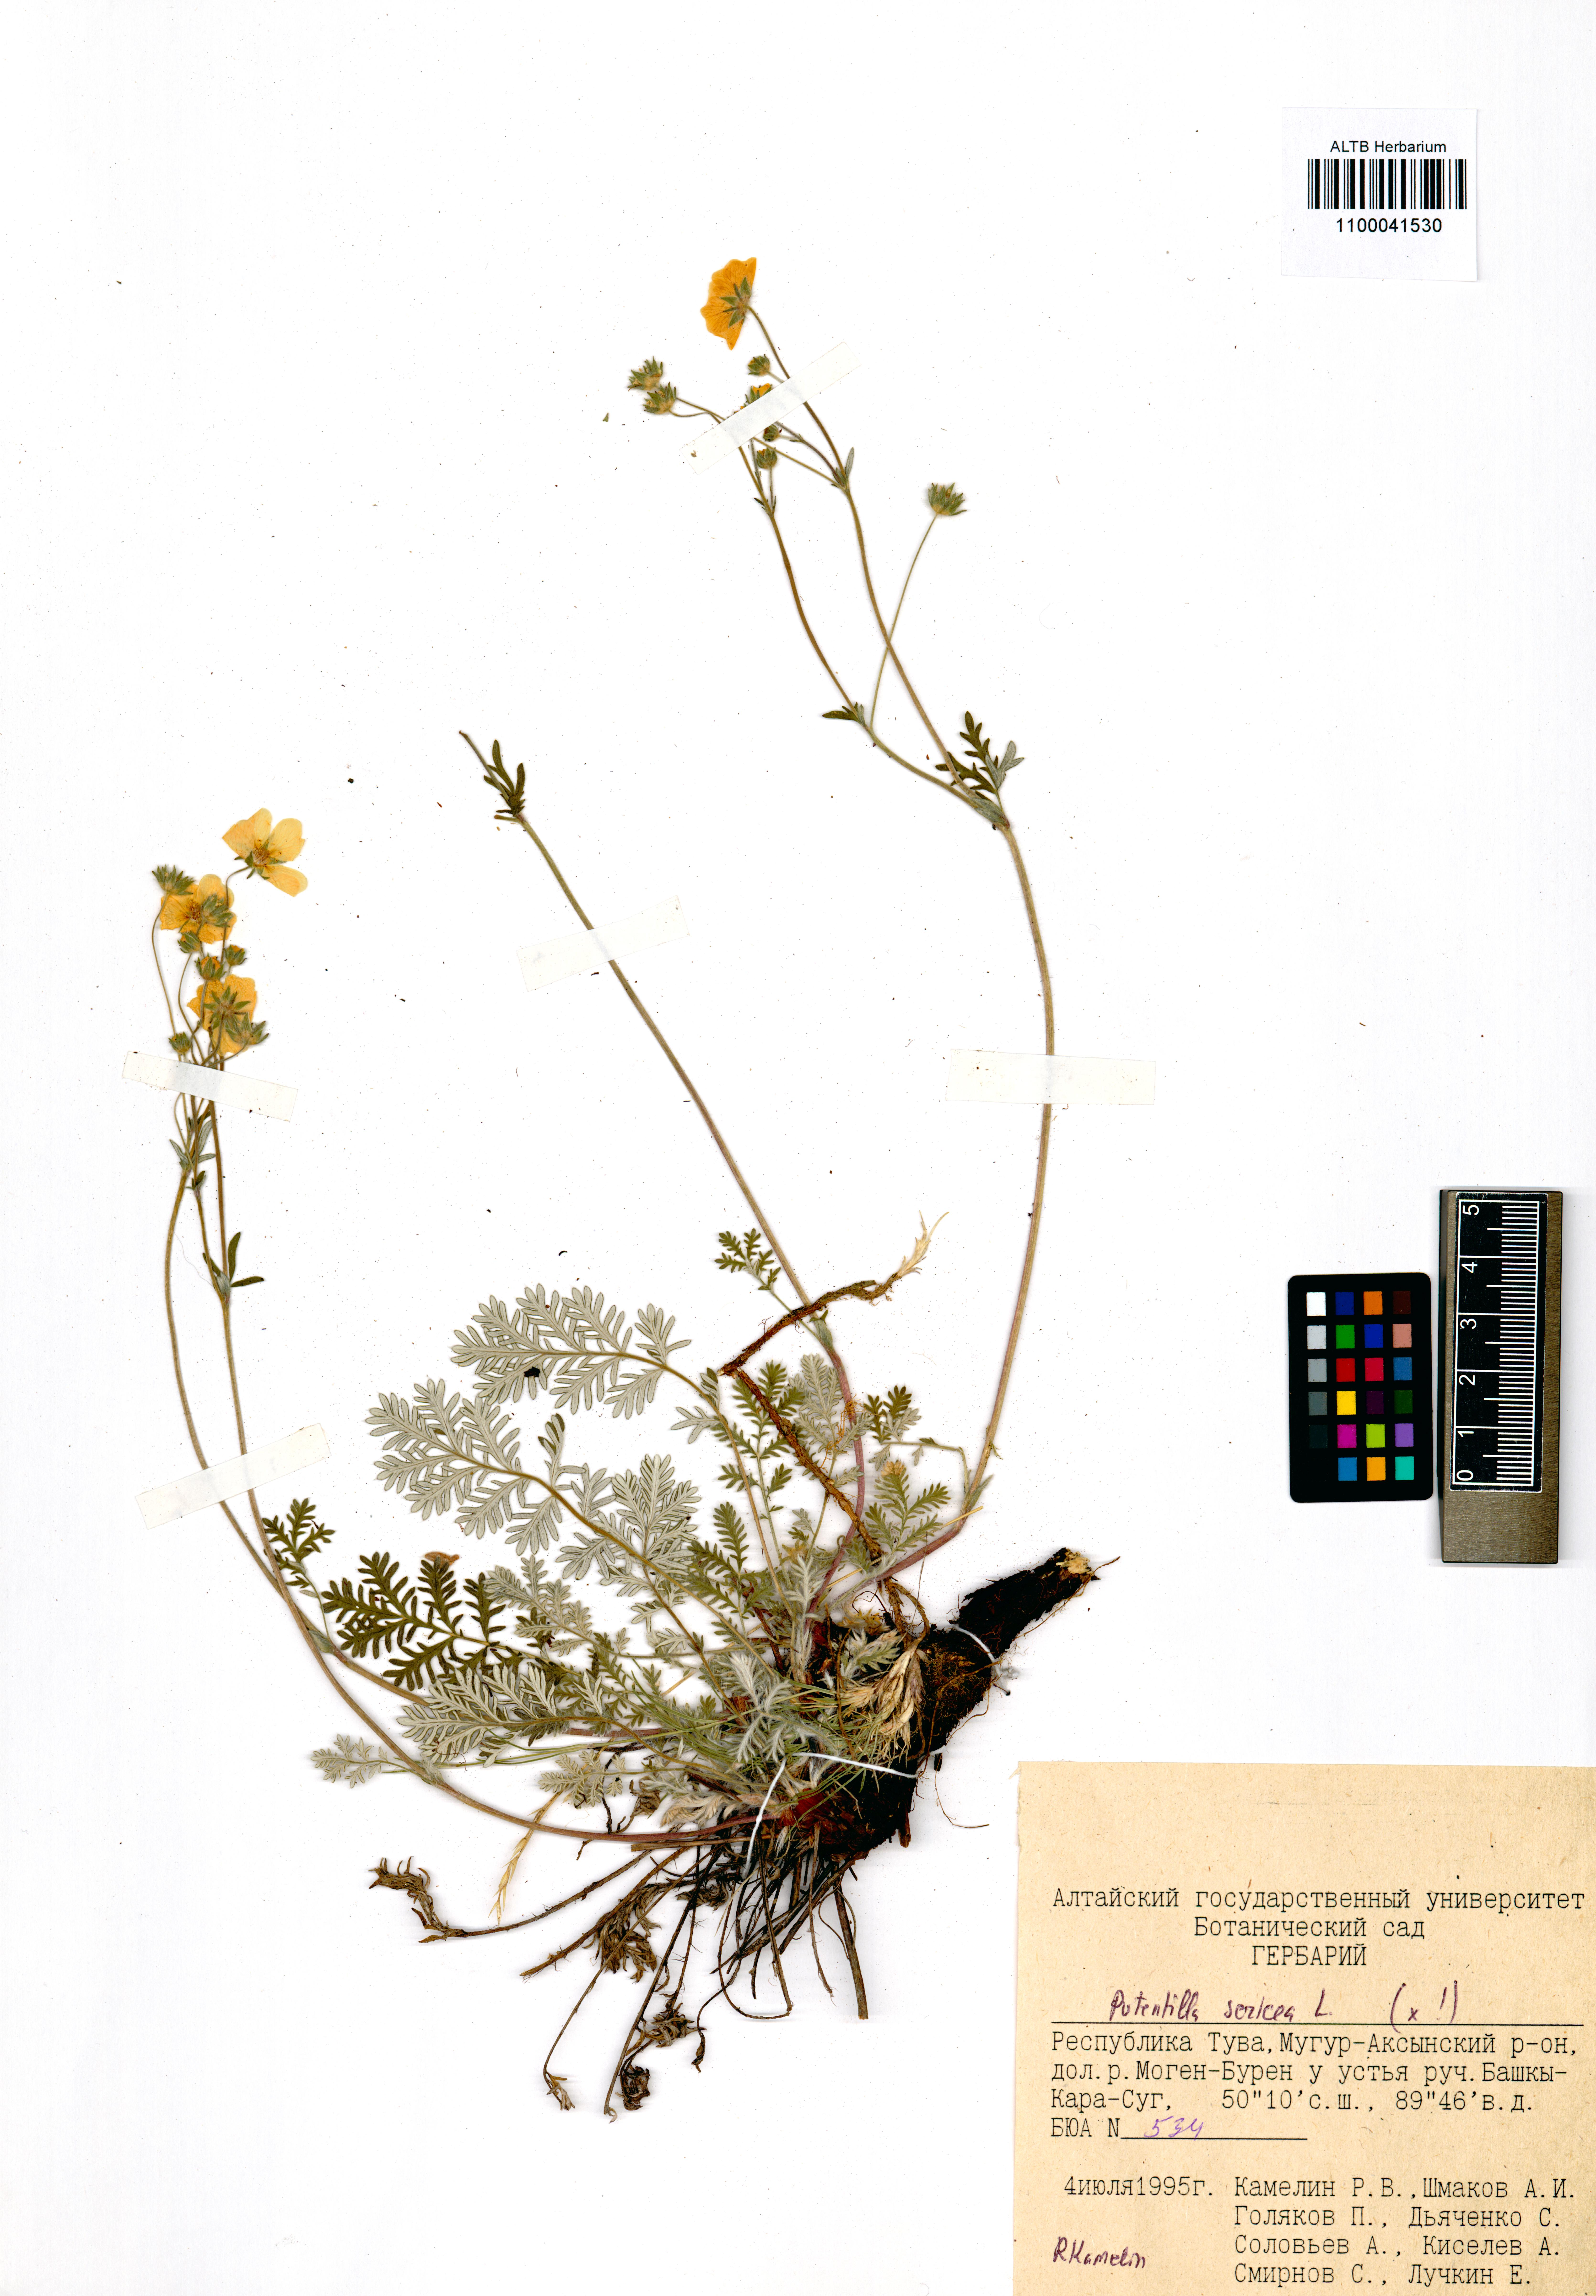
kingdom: Plantae
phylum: Tracheophyta
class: Magnoliopsida
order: Rosales
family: Rosaceae
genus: Potentilla
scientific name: Potentilla sericea
